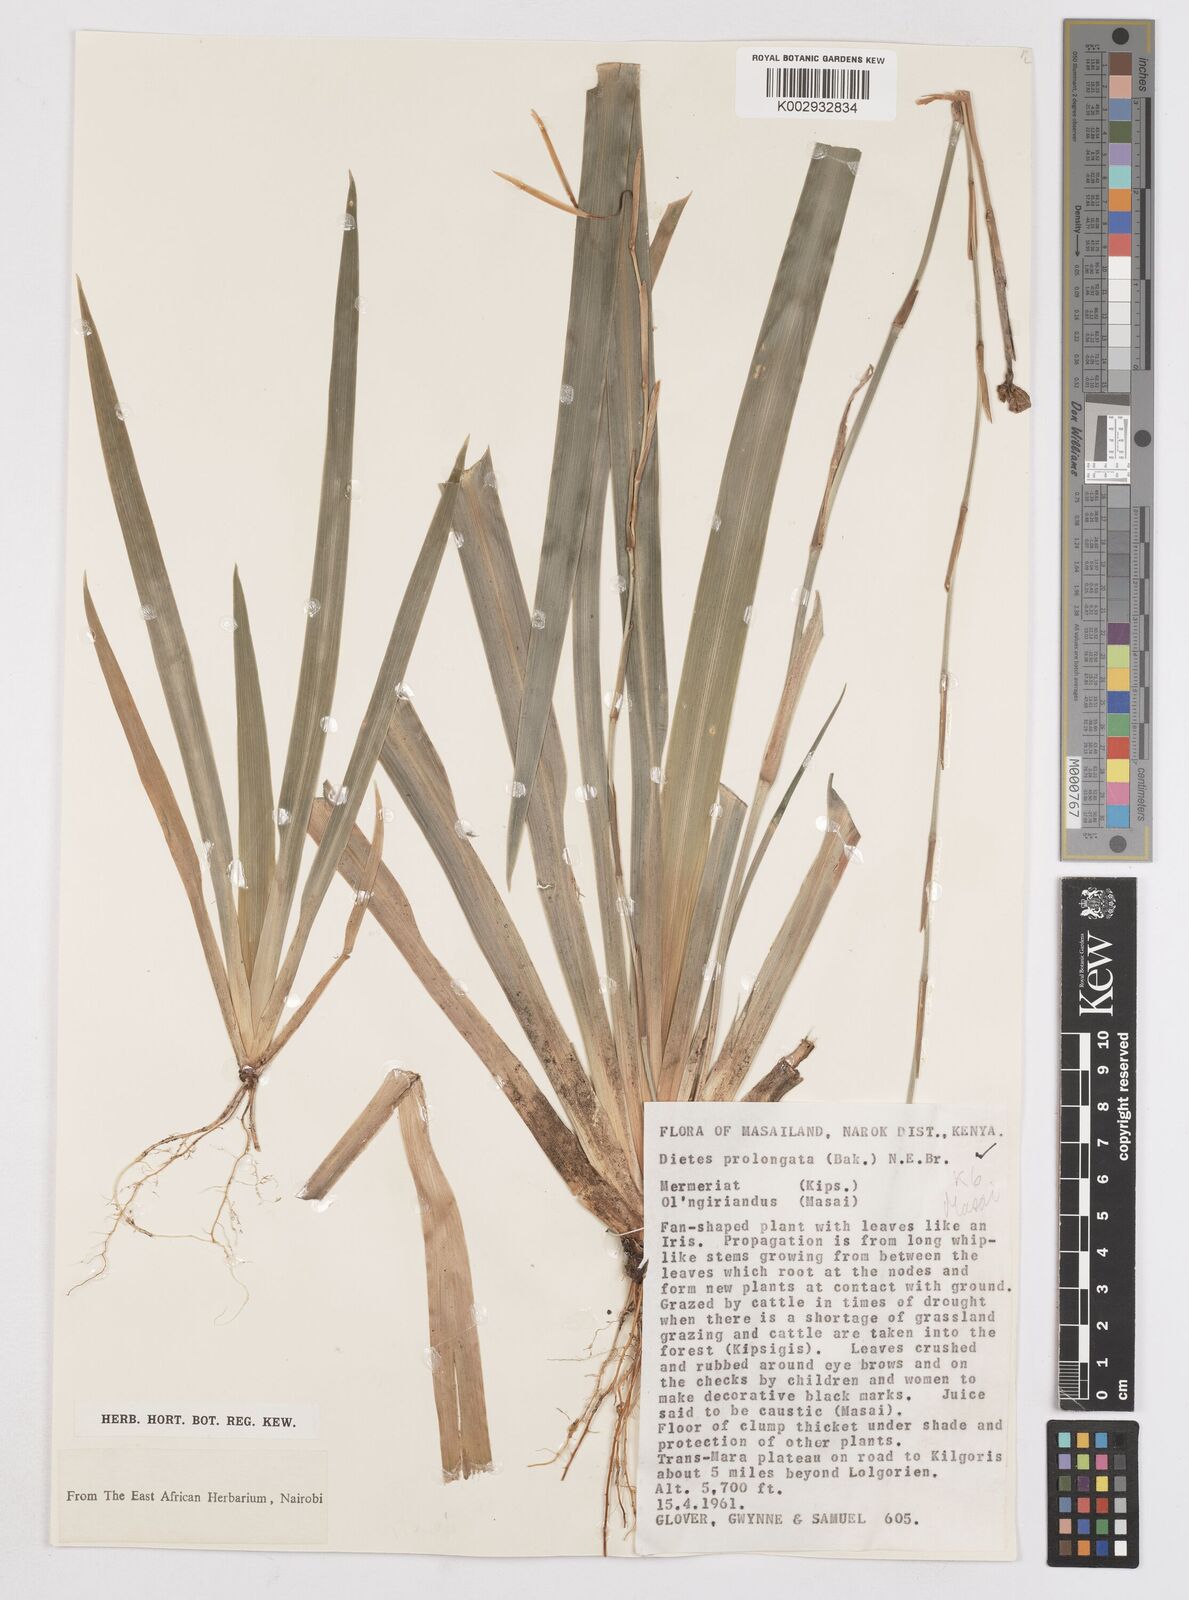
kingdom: Plantae
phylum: Tracheophyta
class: Liliopsida
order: Asparagales
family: Iridaceae
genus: Dietes
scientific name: Dietes iridioides
